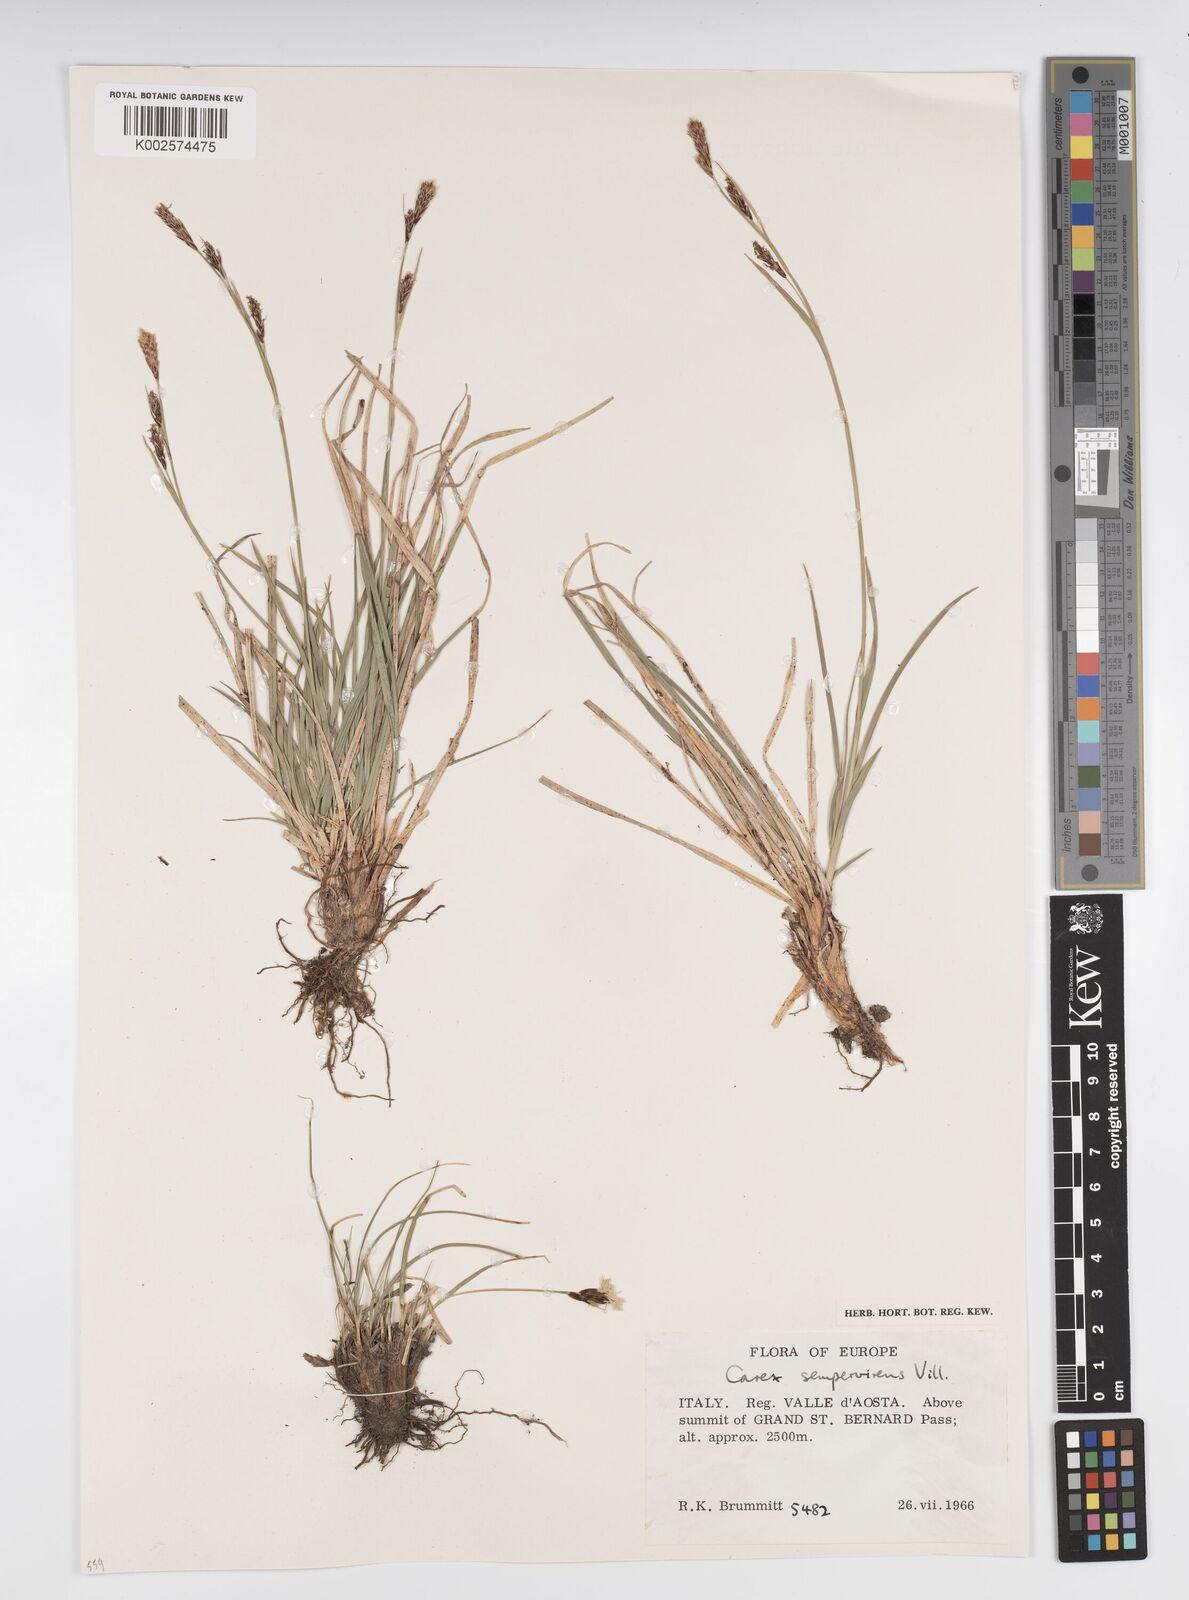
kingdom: Plantae
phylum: Tracheophyta
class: Liliopsida
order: Poales
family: Cyperaceae
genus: Carex
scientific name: Carex sempervirens
